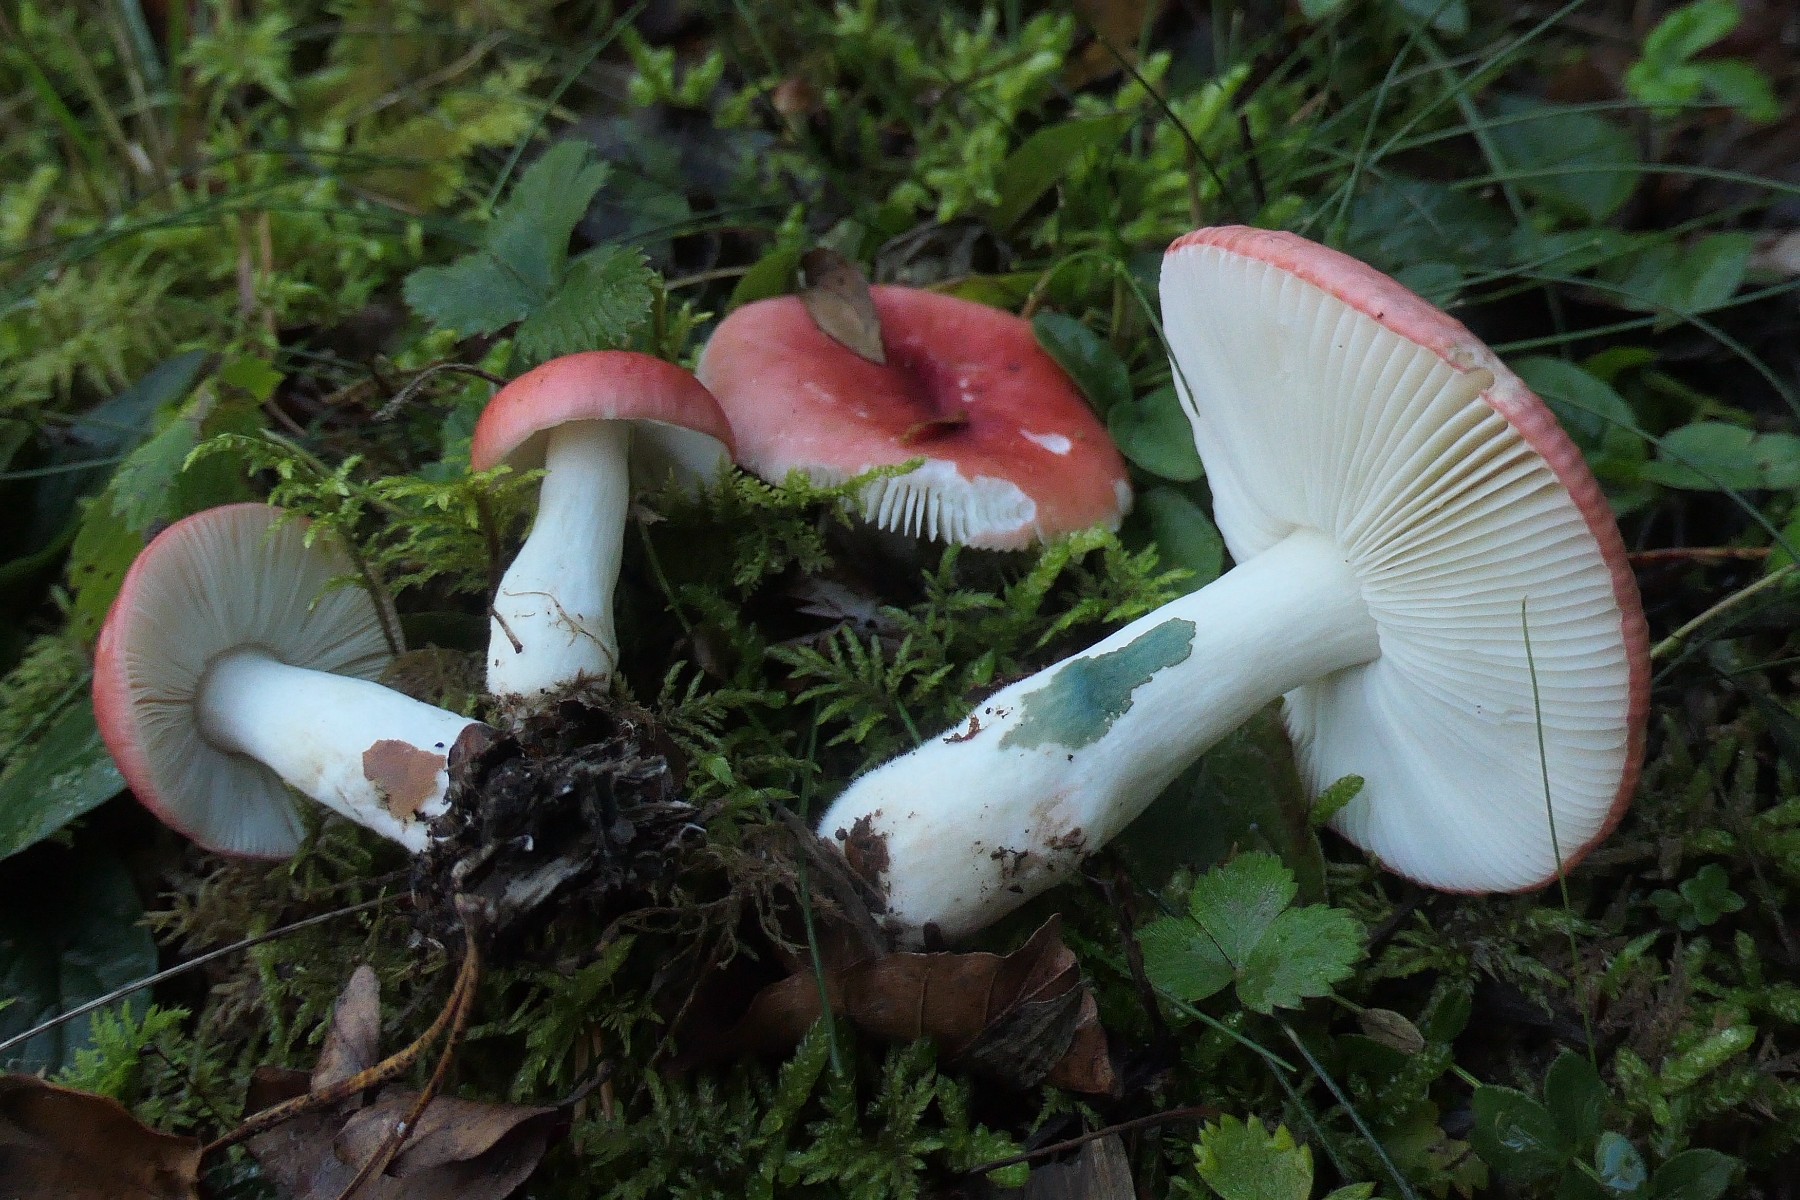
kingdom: Fungi
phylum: Basidiomycota
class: Agaricomycetes
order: Russulales
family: Russulaceae
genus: Russula
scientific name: Russula nobilis
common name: lille gift-skørhat
